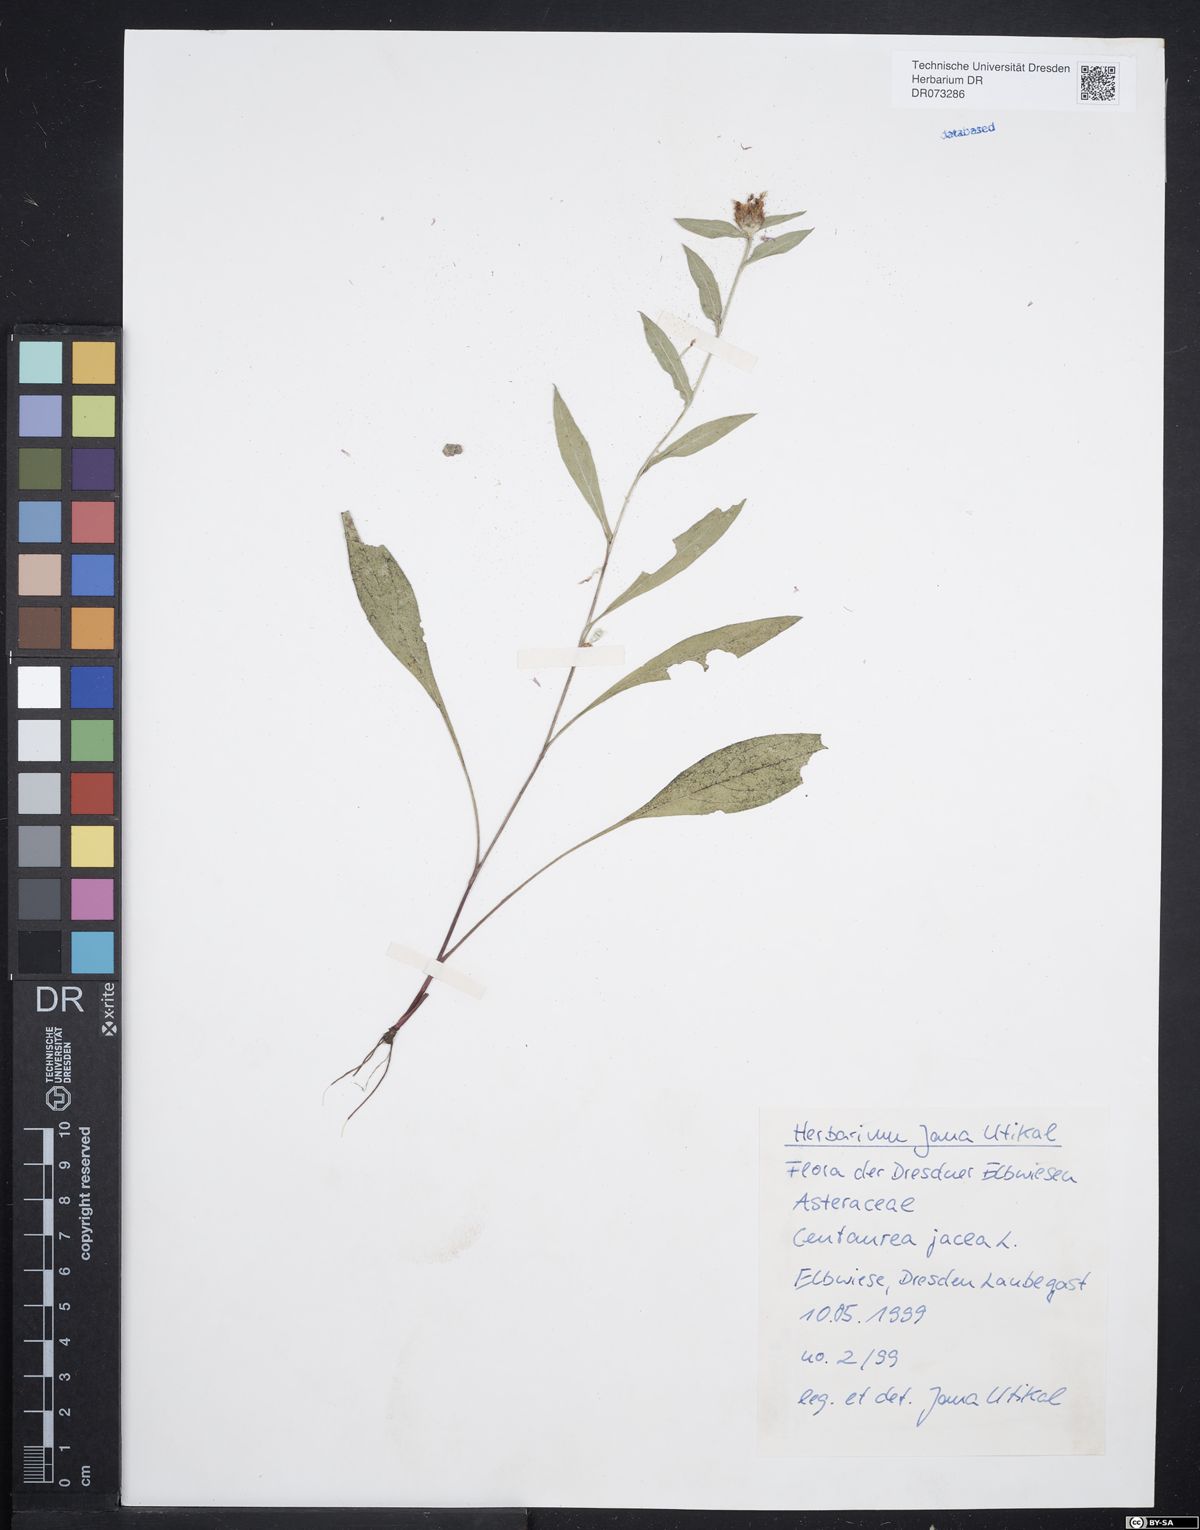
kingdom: Plantae
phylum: Tracheophyta
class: Magnoliopsida
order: Asterales
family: Asteraceae
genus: Centaurea
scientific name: Centaurea jacea
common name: Brown knapweed
